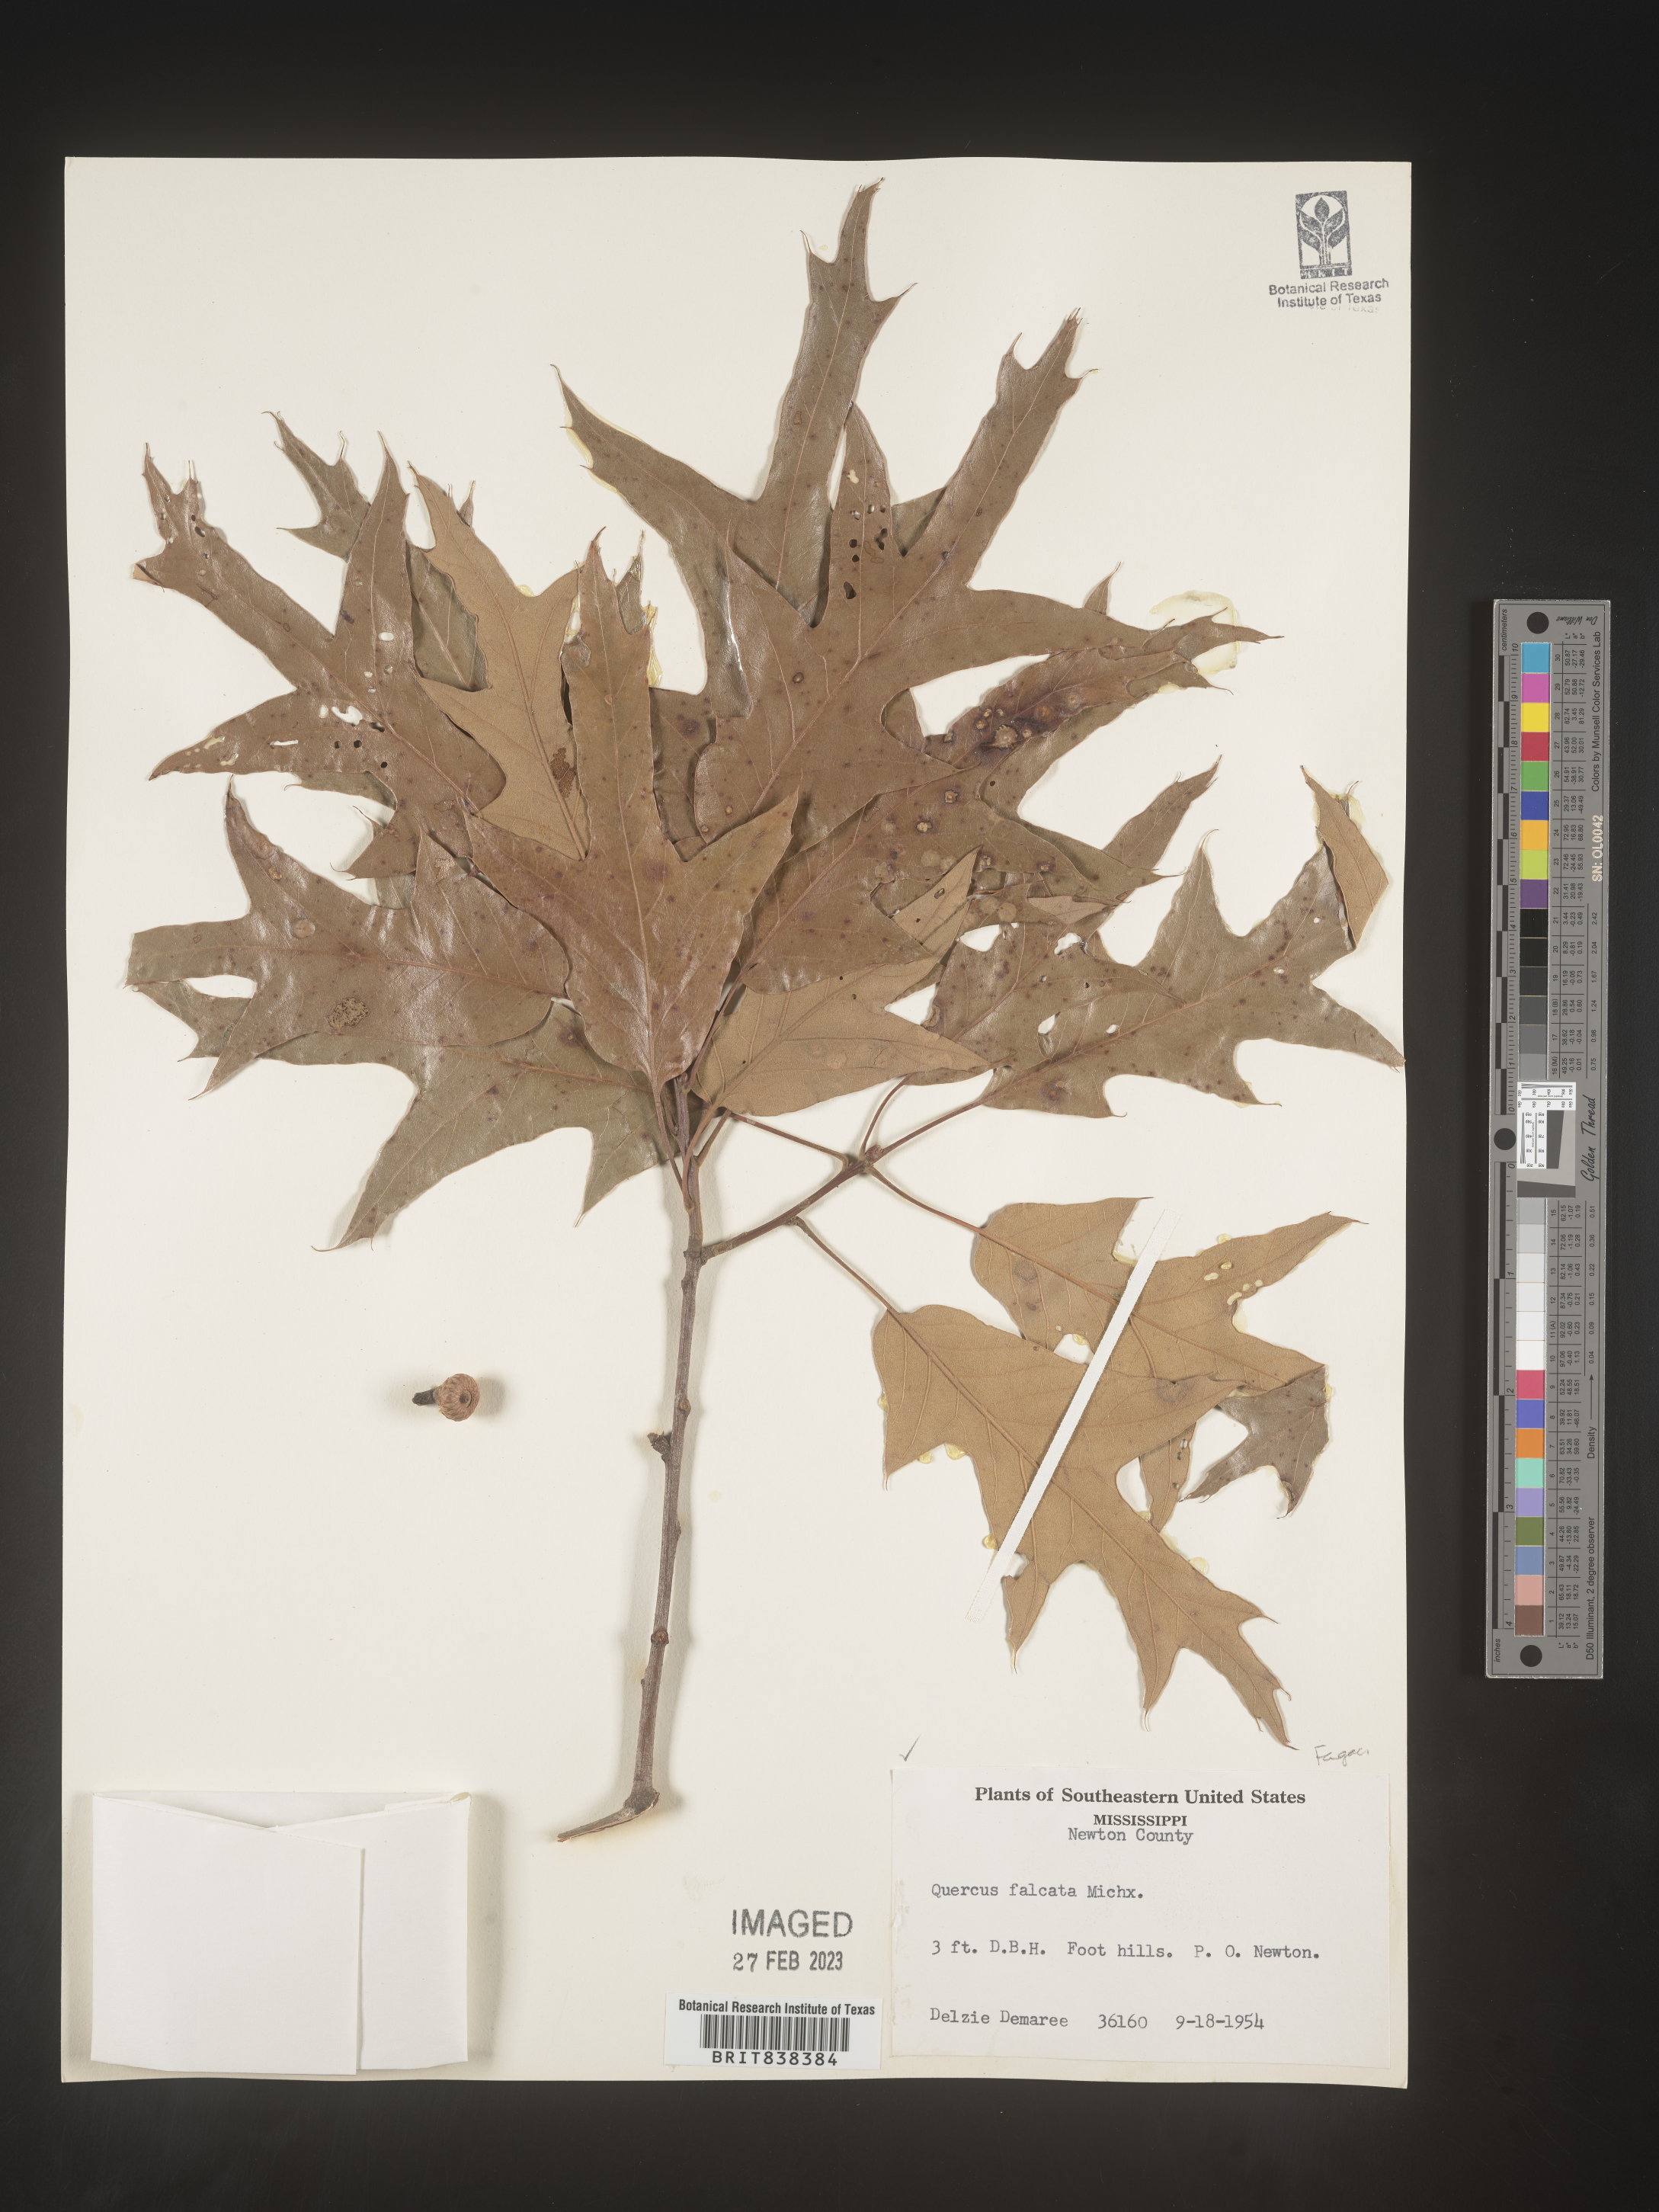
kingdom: Plantae
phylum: Tracheophyta
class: Magnoliopsida
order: Fagales
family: Fagaceae
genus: Quercus
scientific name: Quercus falcata
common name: Southern red oak
